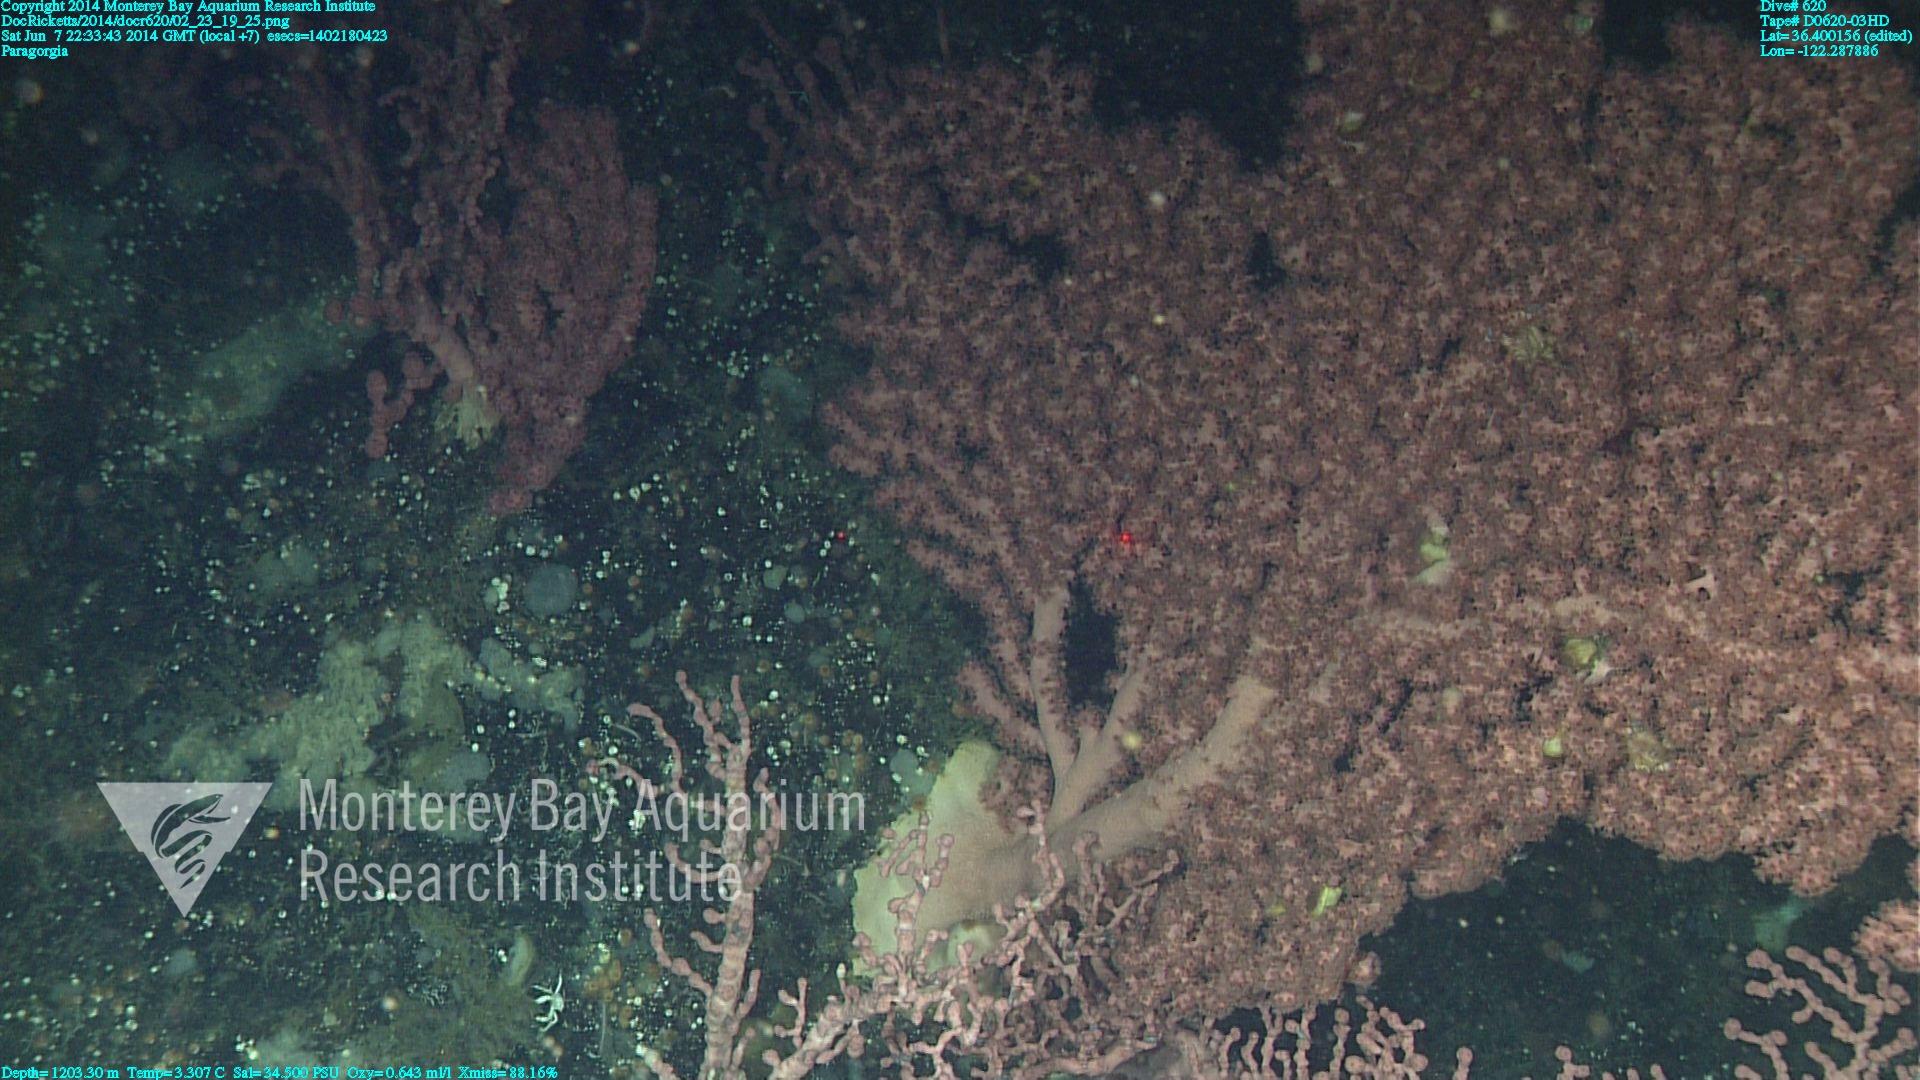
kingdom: Animalia
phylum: Cnidaria
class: Anthozoa
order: Scleralcyonacea
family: Coralliidae
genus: Paragorgia
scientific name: Paragorgia arborea
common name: Bubble gum coral
